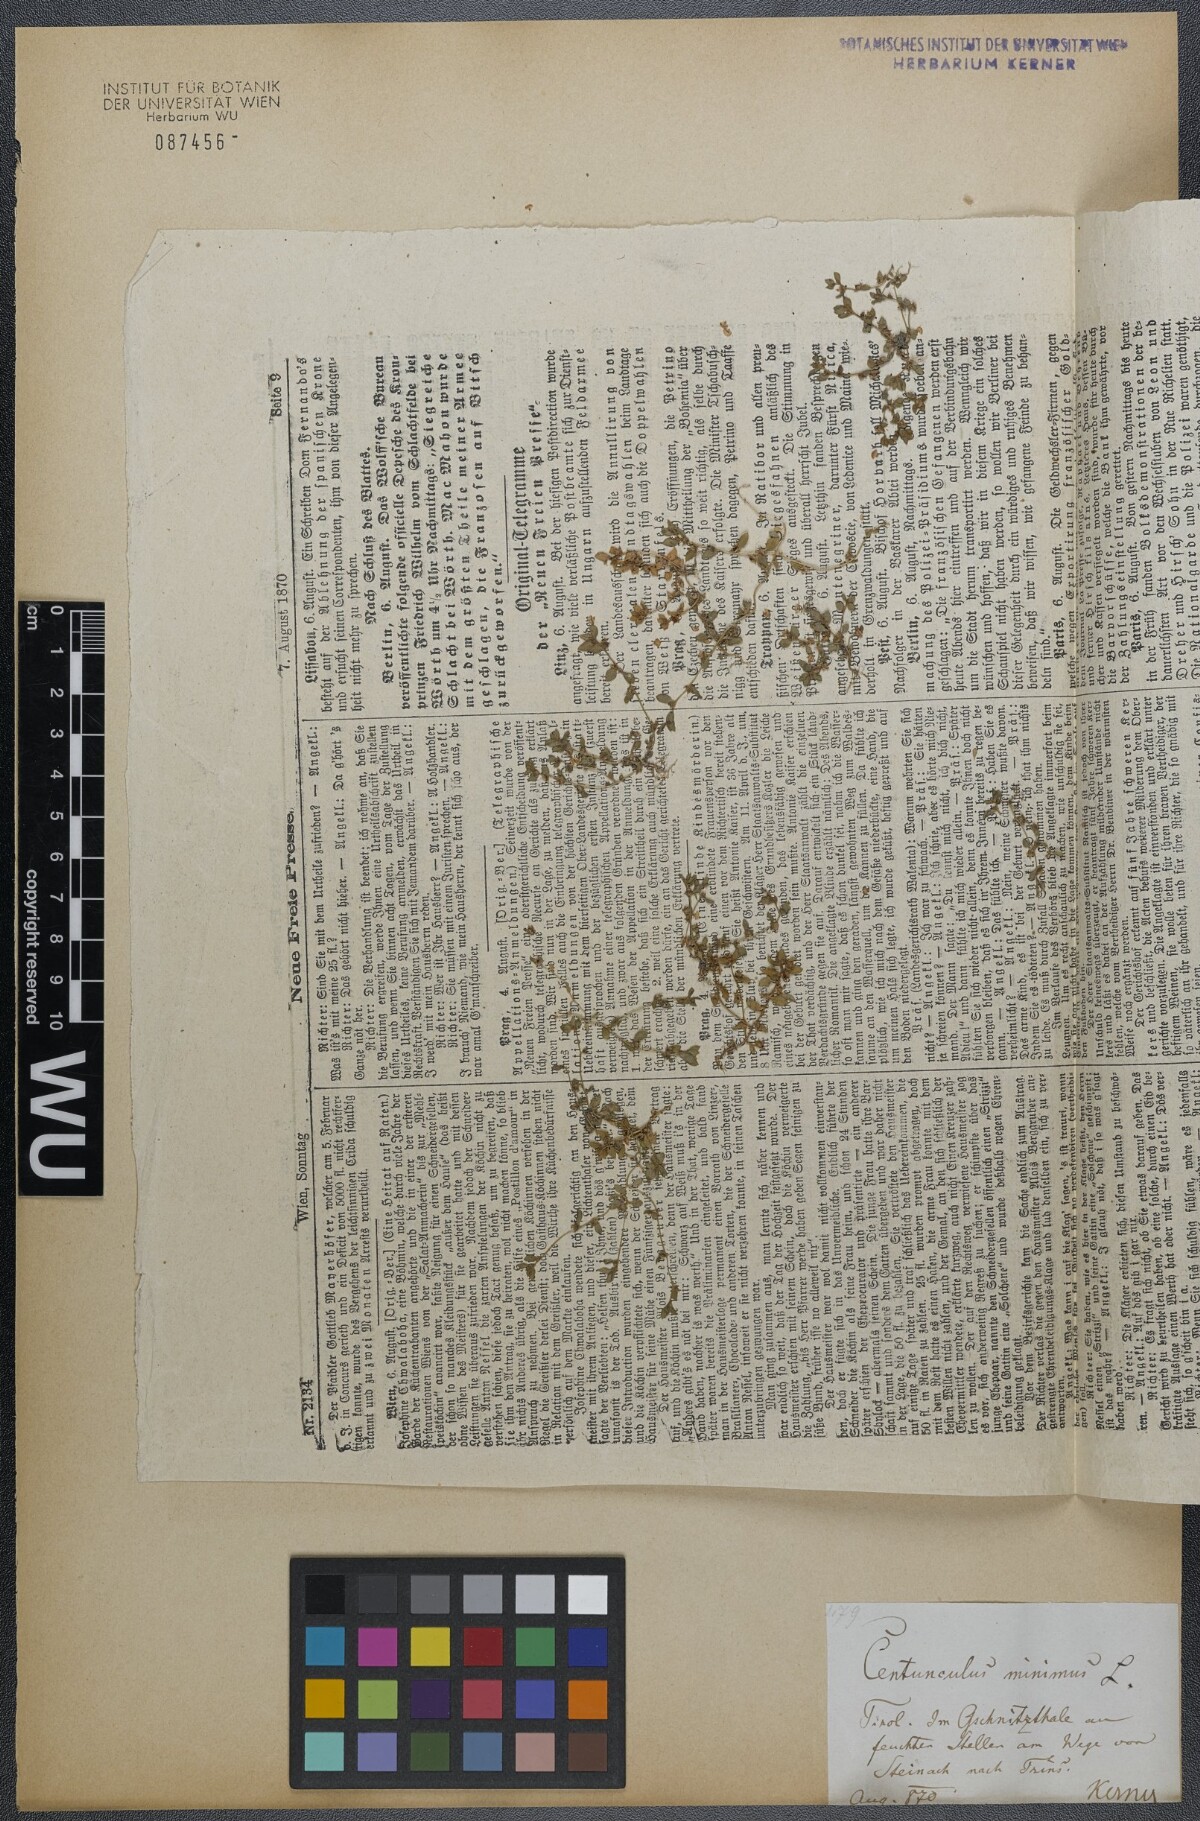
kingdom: Plantae
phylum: Tracheophyta
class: Magnoliopsida
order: Ericales
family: Primulaceae
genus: Lysimachia
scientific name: Lysimachia minima
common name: Chaffweed
